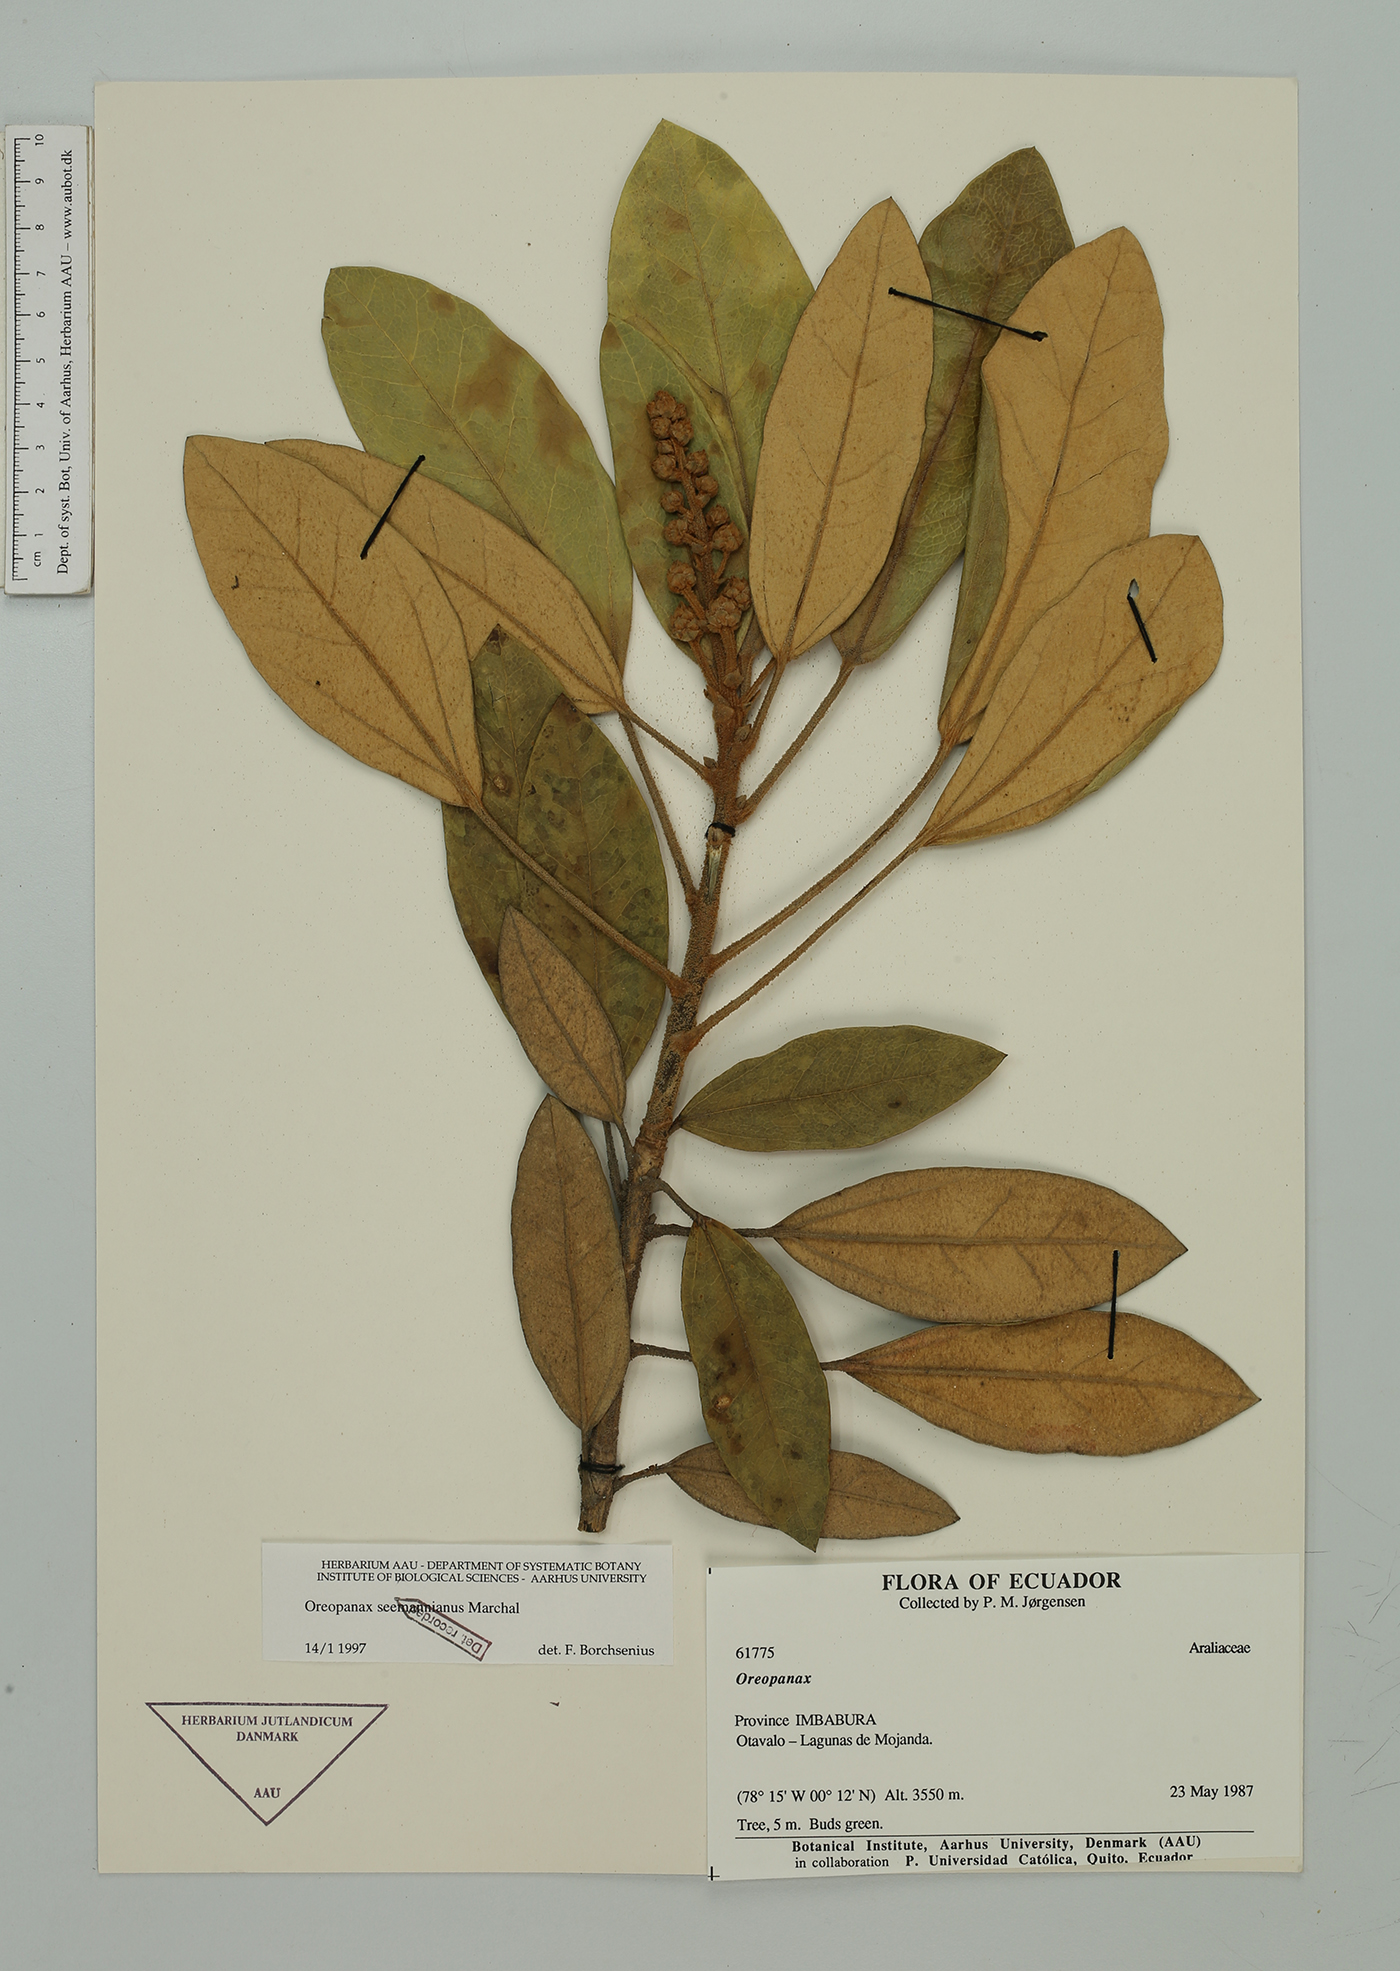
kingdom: Plantae
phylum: Tracheophyta
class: Magnoliopsida
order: Apiales
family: Araliaceae
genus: Oreopanax
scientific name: Oreopanax seemannianus
